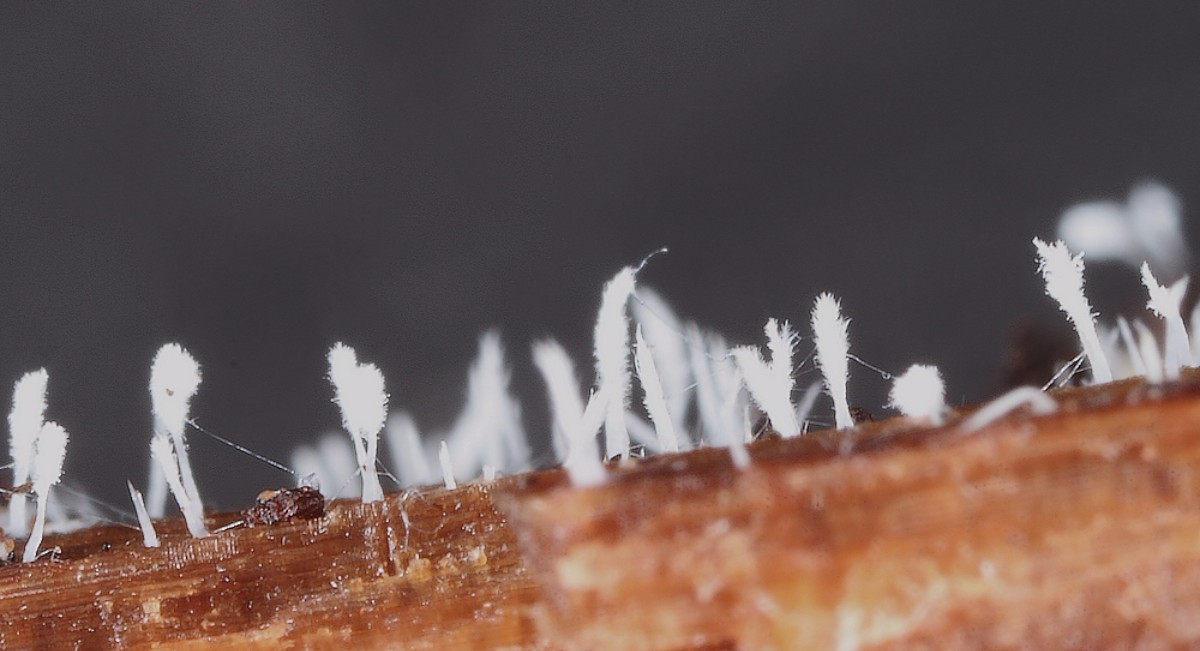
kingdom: Fungi
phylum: Basidiomycota
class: Agaricomycetes
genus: Riessia
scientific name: Riessia semiophora
